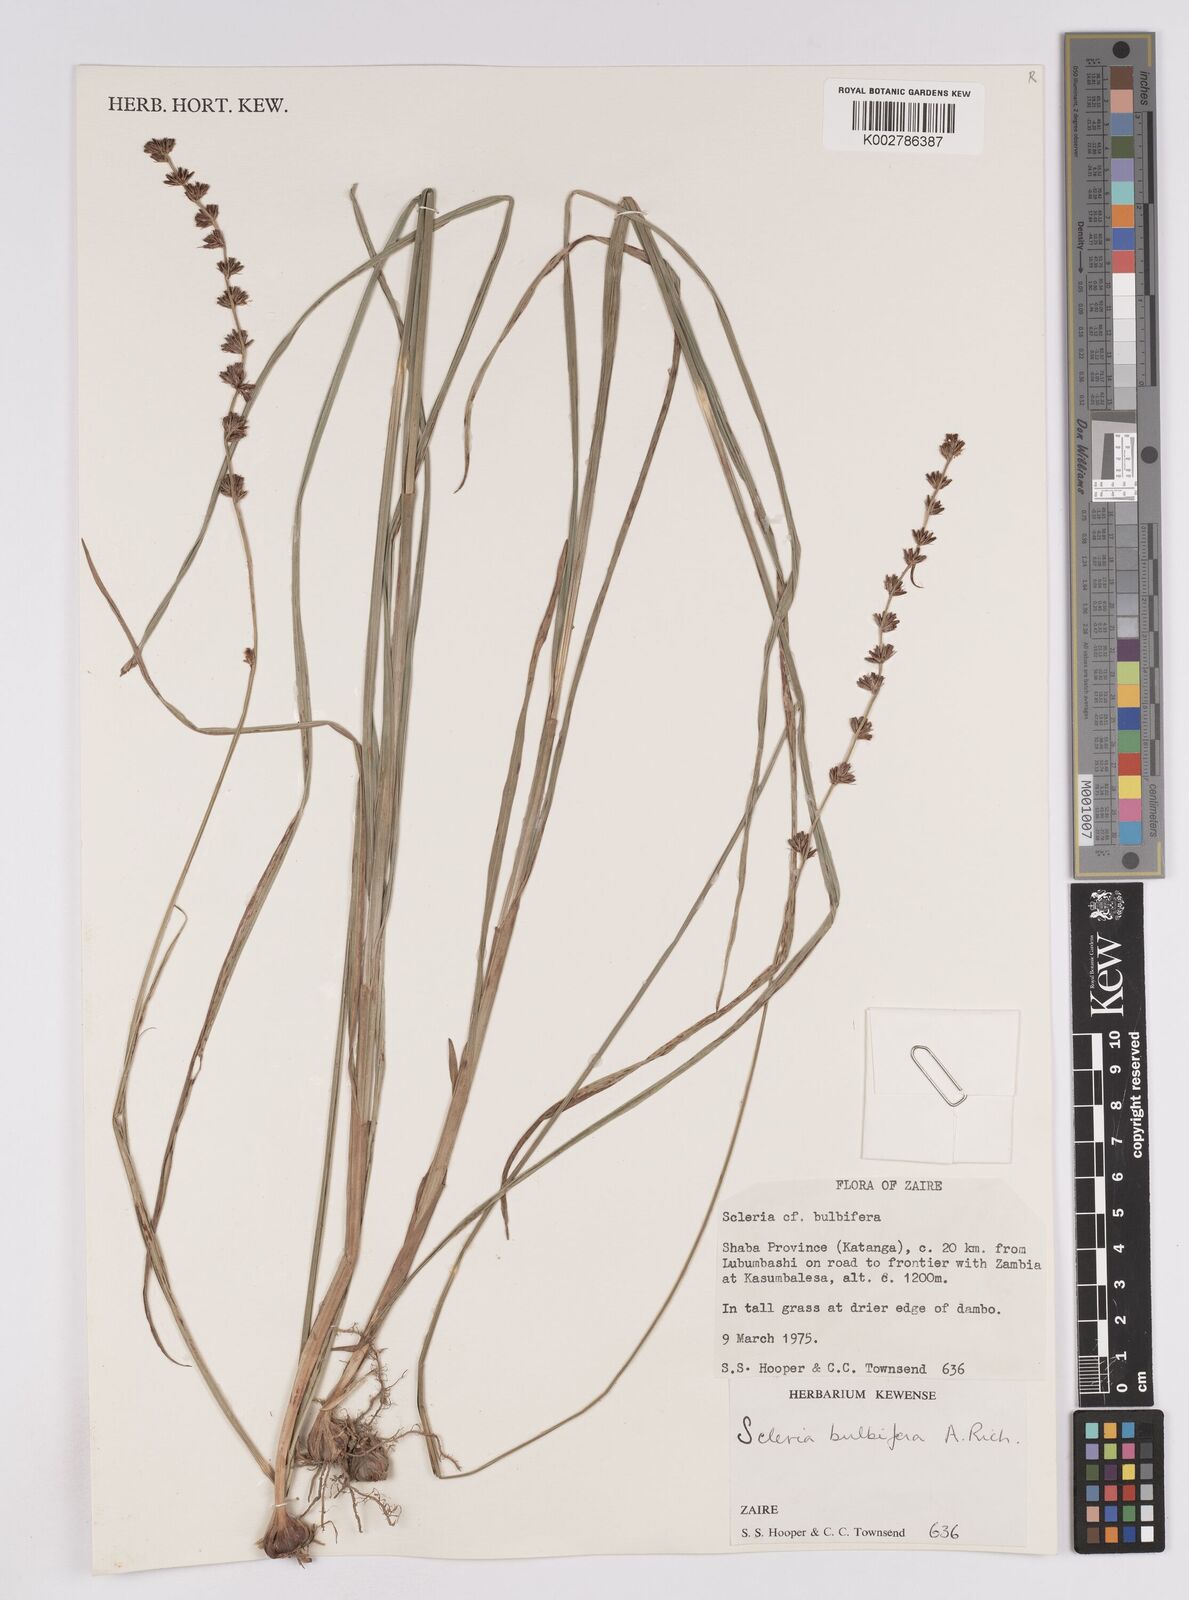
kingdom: Plantae
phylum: Tracheophyta
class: Liliopsida
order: Poales
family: Cyperaceae
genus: Scleria
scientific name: Scleria bulbifera
